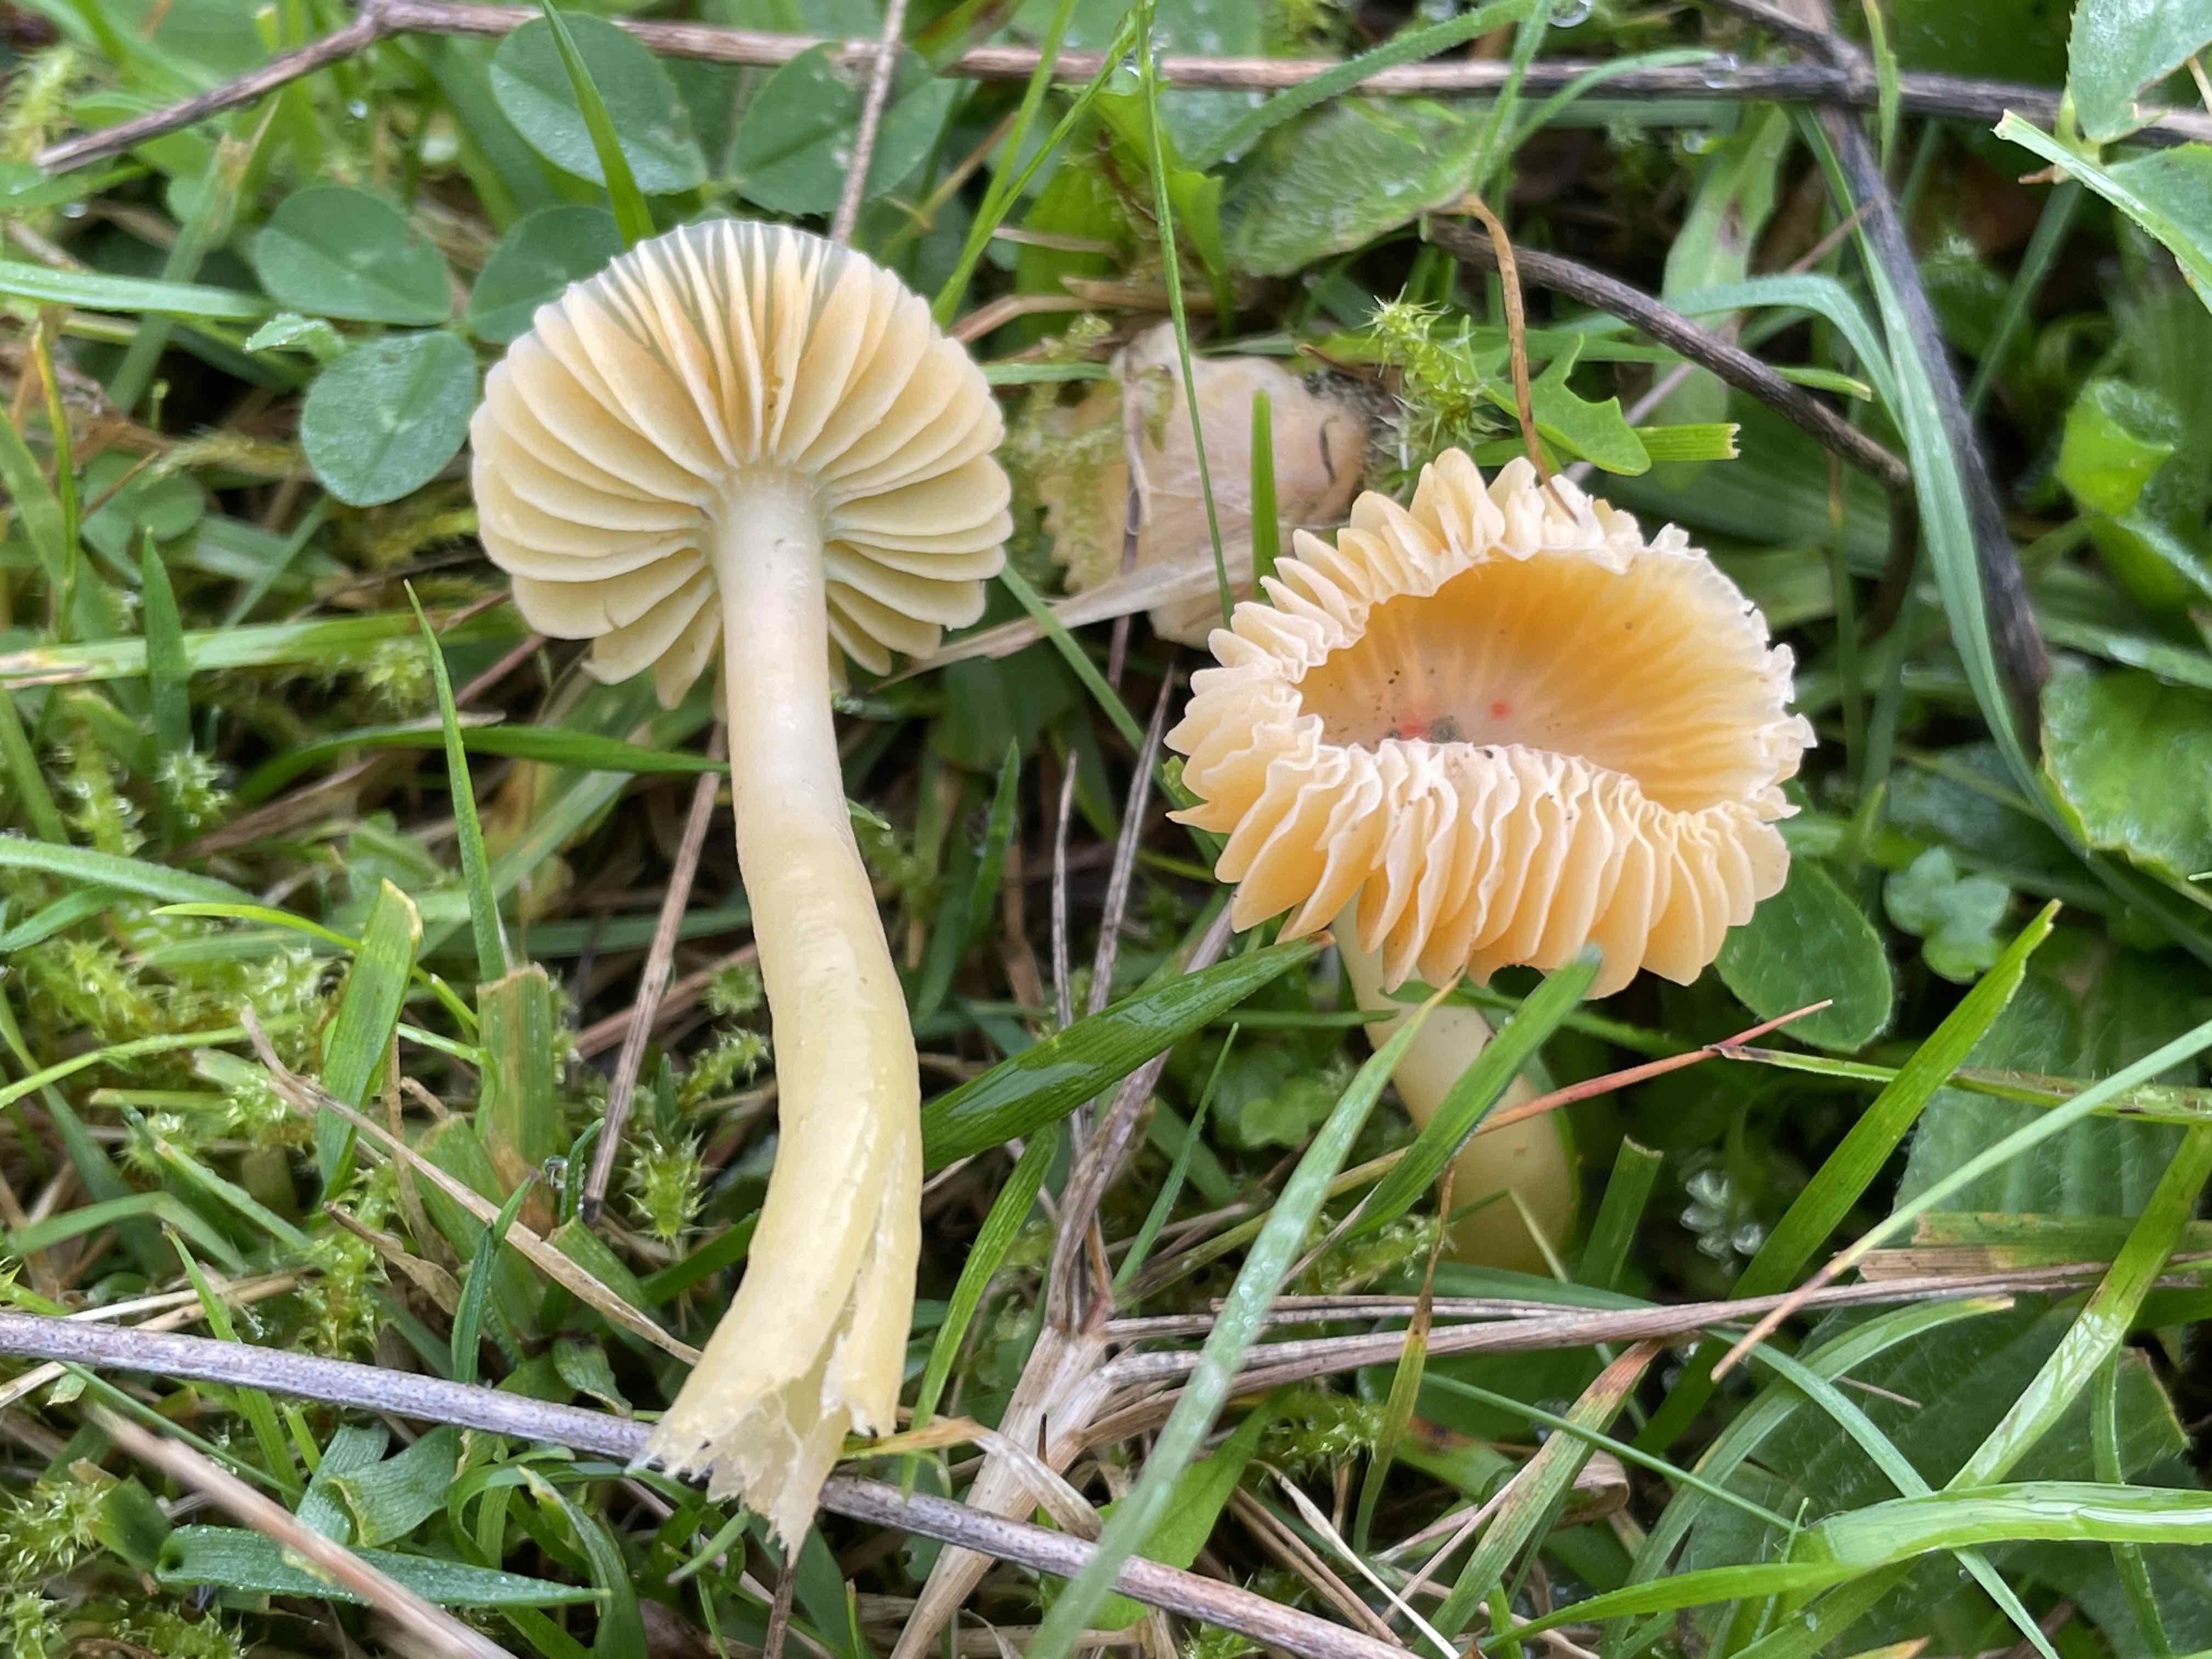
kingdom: Fungi
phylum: Basidiomycota
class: Agaricomycetes
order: Agaricales
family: Hygrophoraceae
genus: Gliophorus
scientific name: Gliophorus psittacinus
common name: papegøje-vokshat
